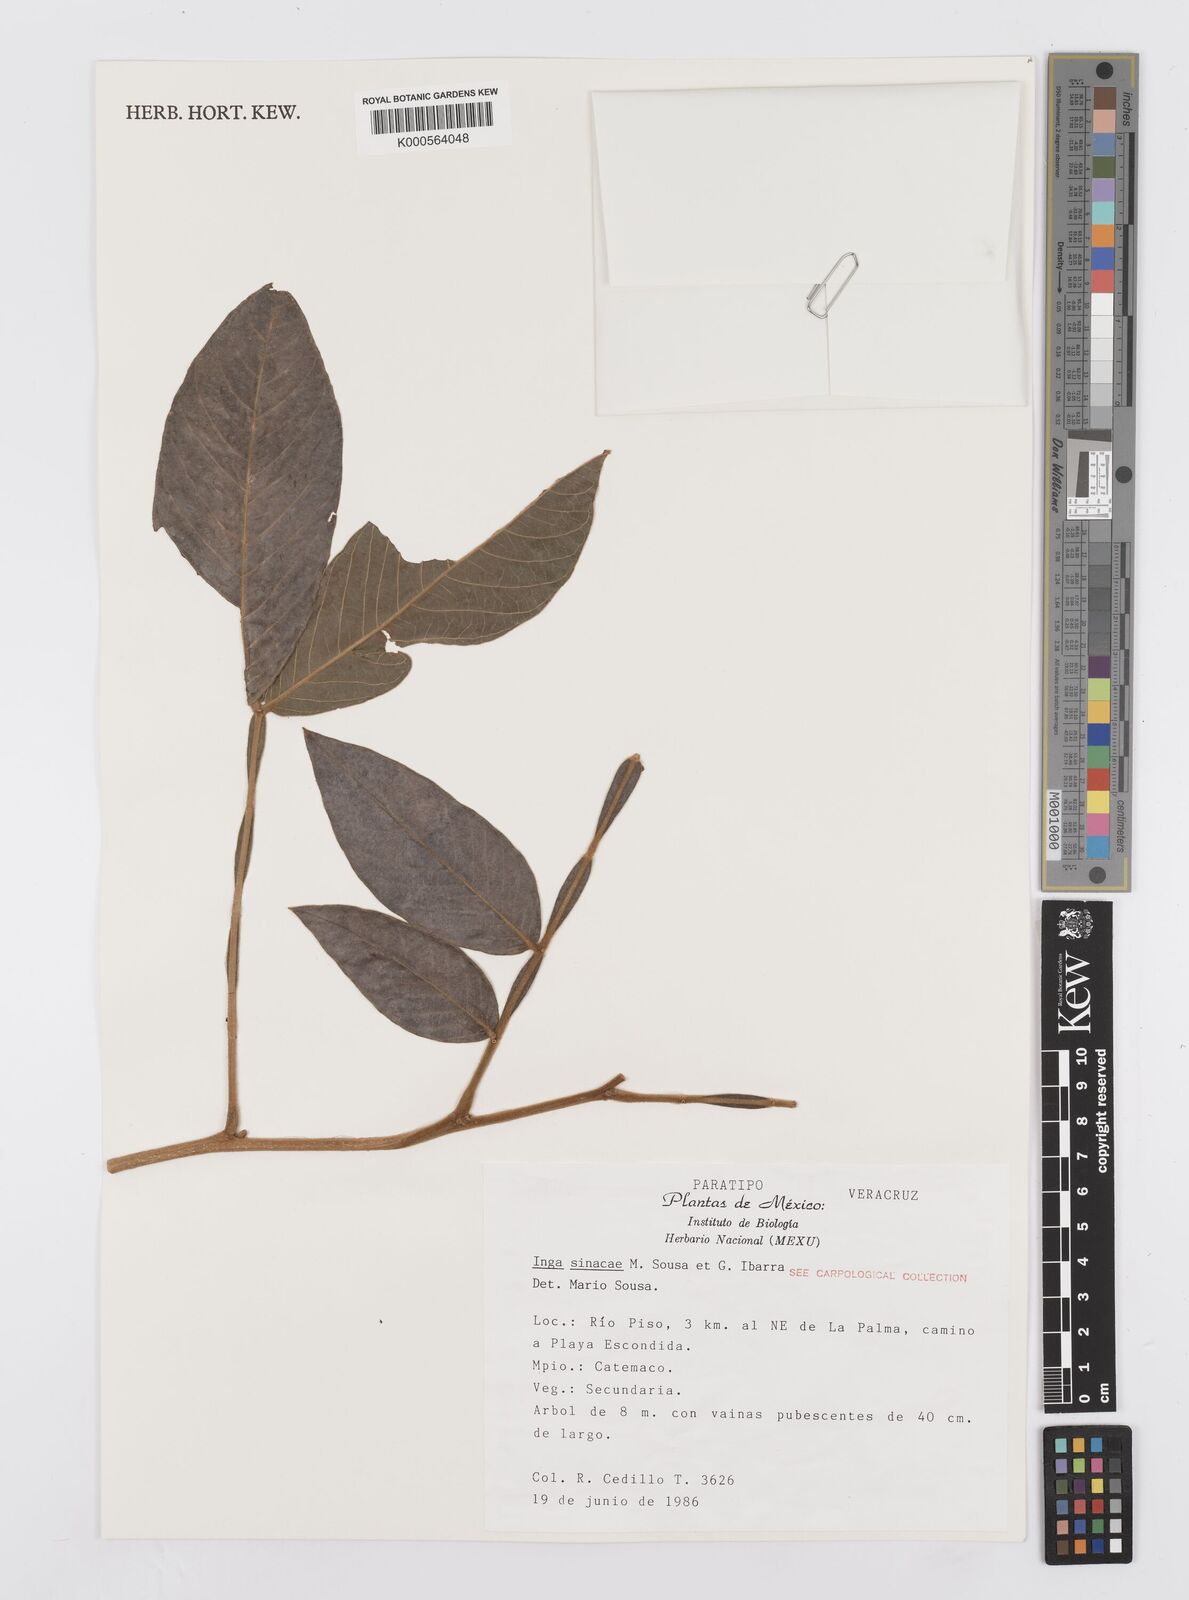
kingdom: Plantae
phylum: Tracheophyta
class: Magnoliopsida
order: Fabales
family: Fabaceae
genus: Inga
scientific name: Inga sinacae
